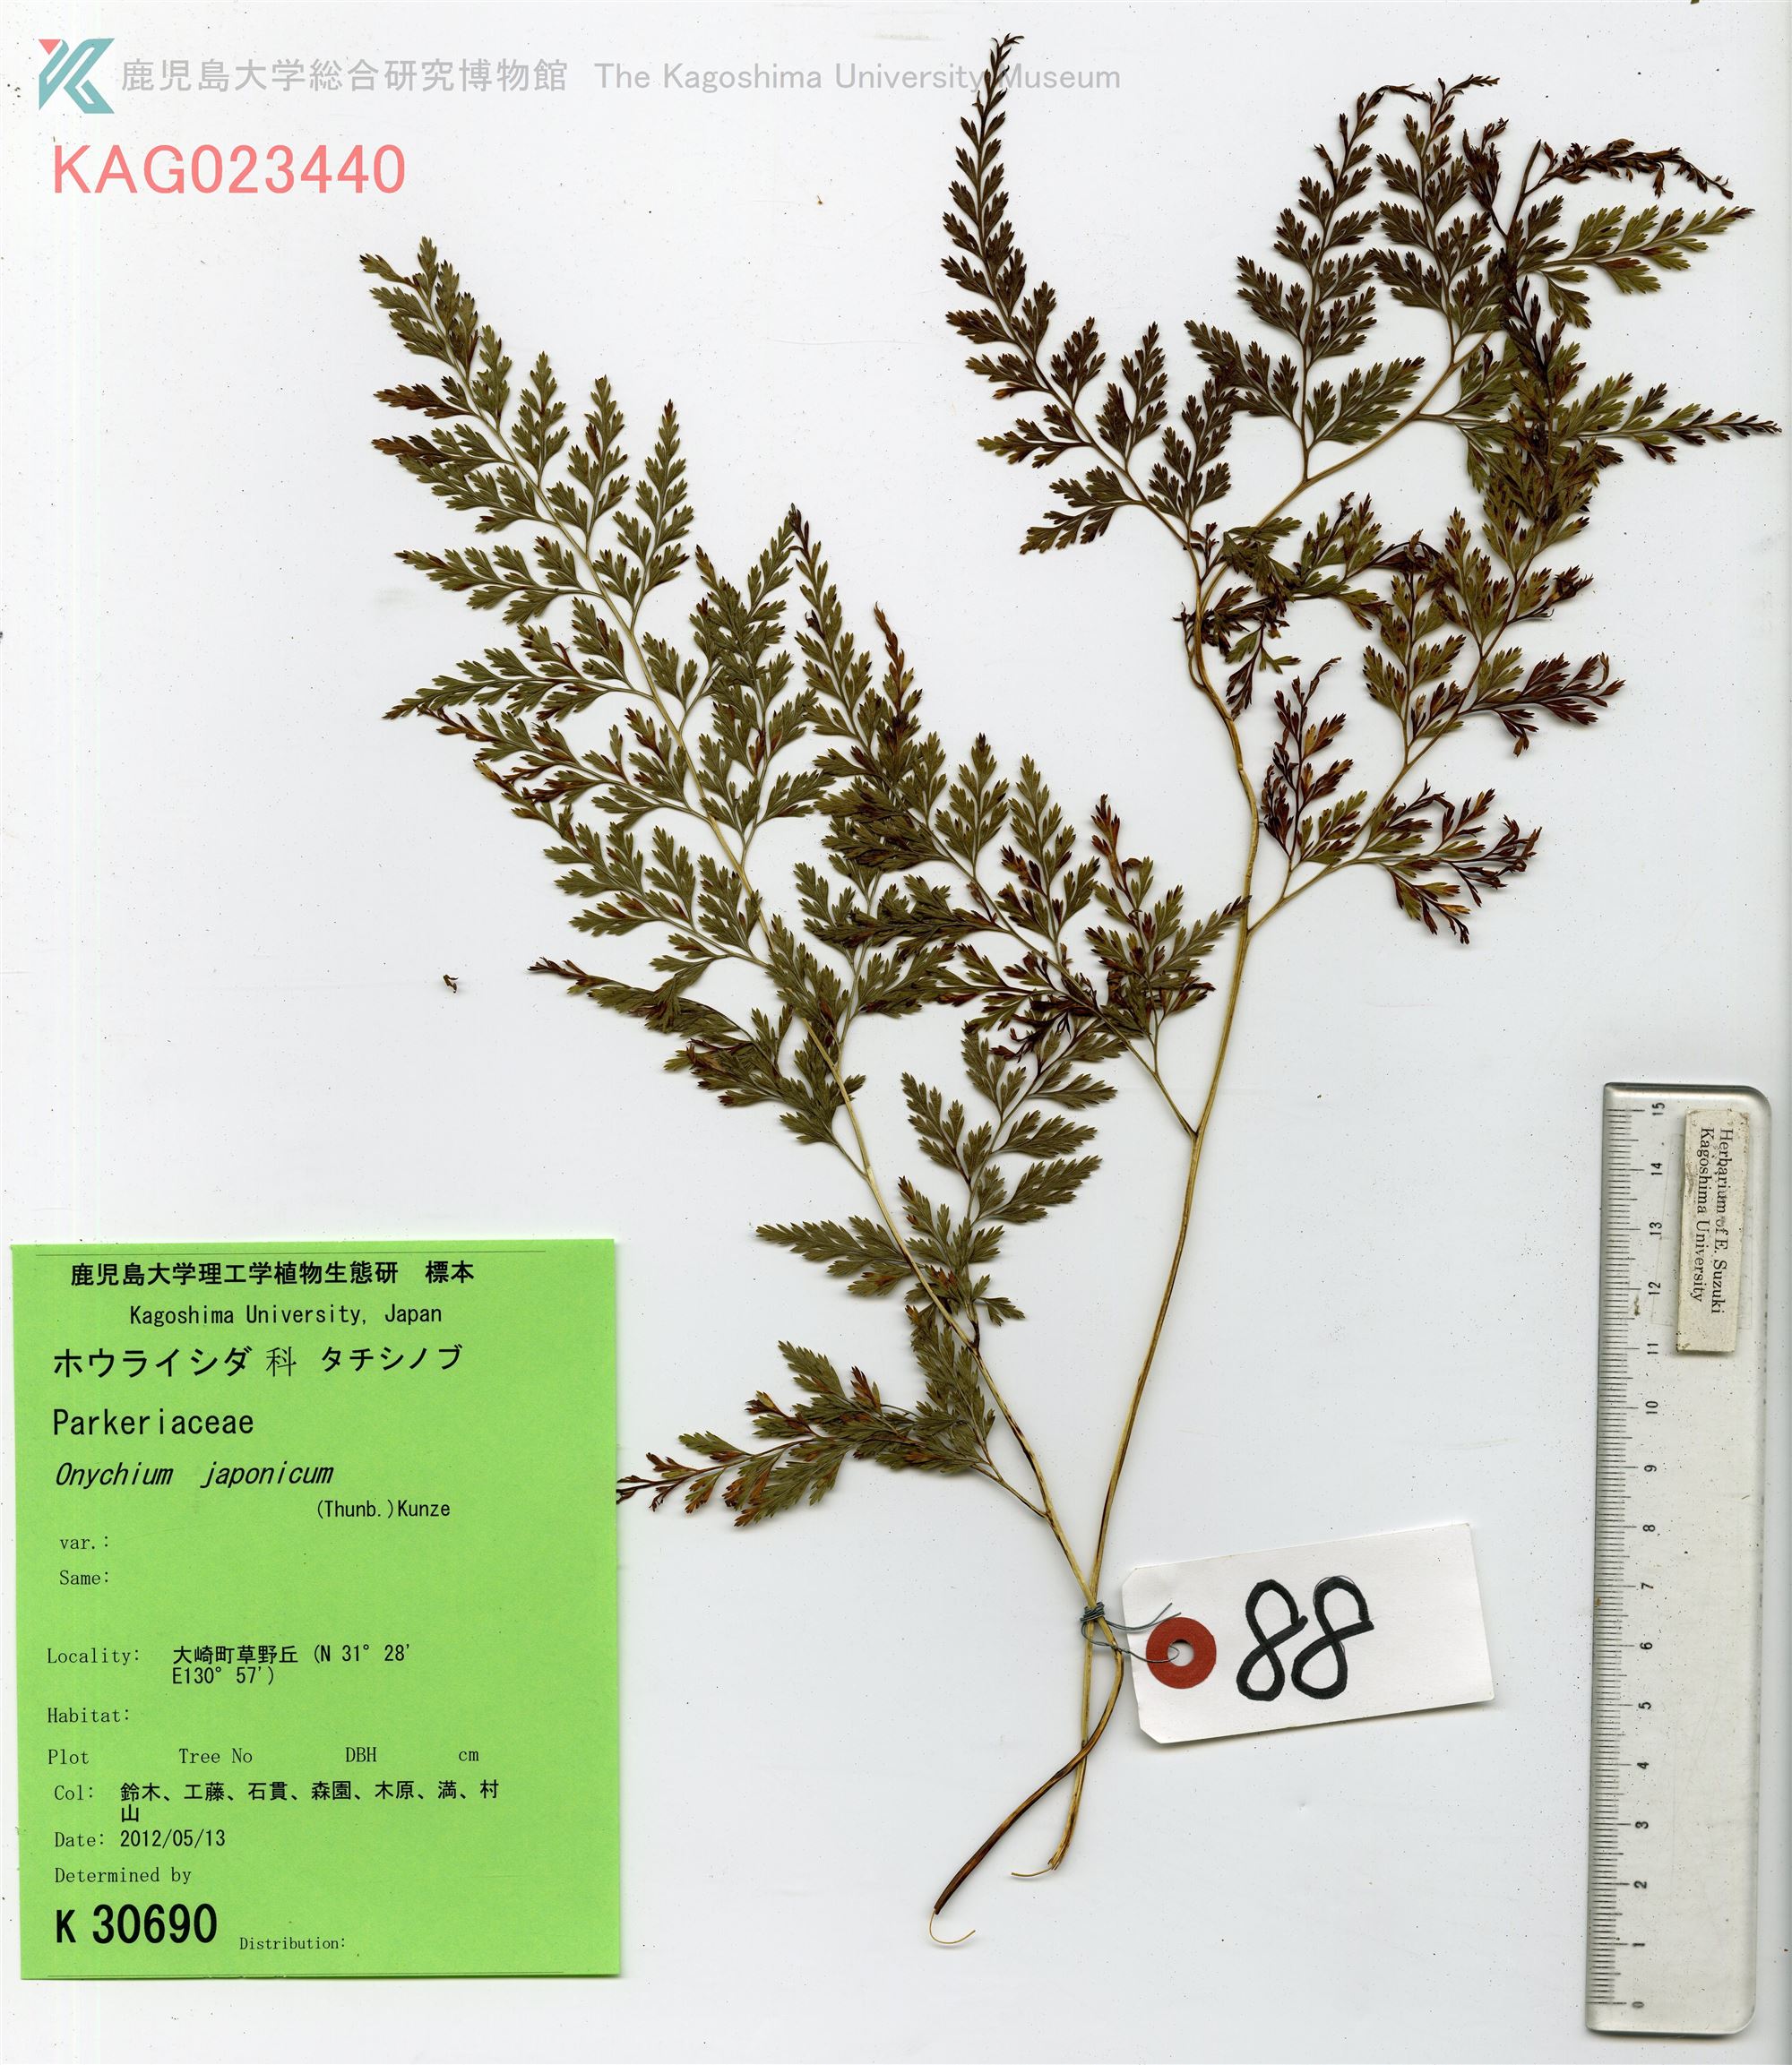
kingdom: Plantae
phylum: Tracheophyta
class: Polypodiopsida
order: Polypodiales
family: Pteridaceae
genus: Onychium
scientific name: Onychium japonicum
